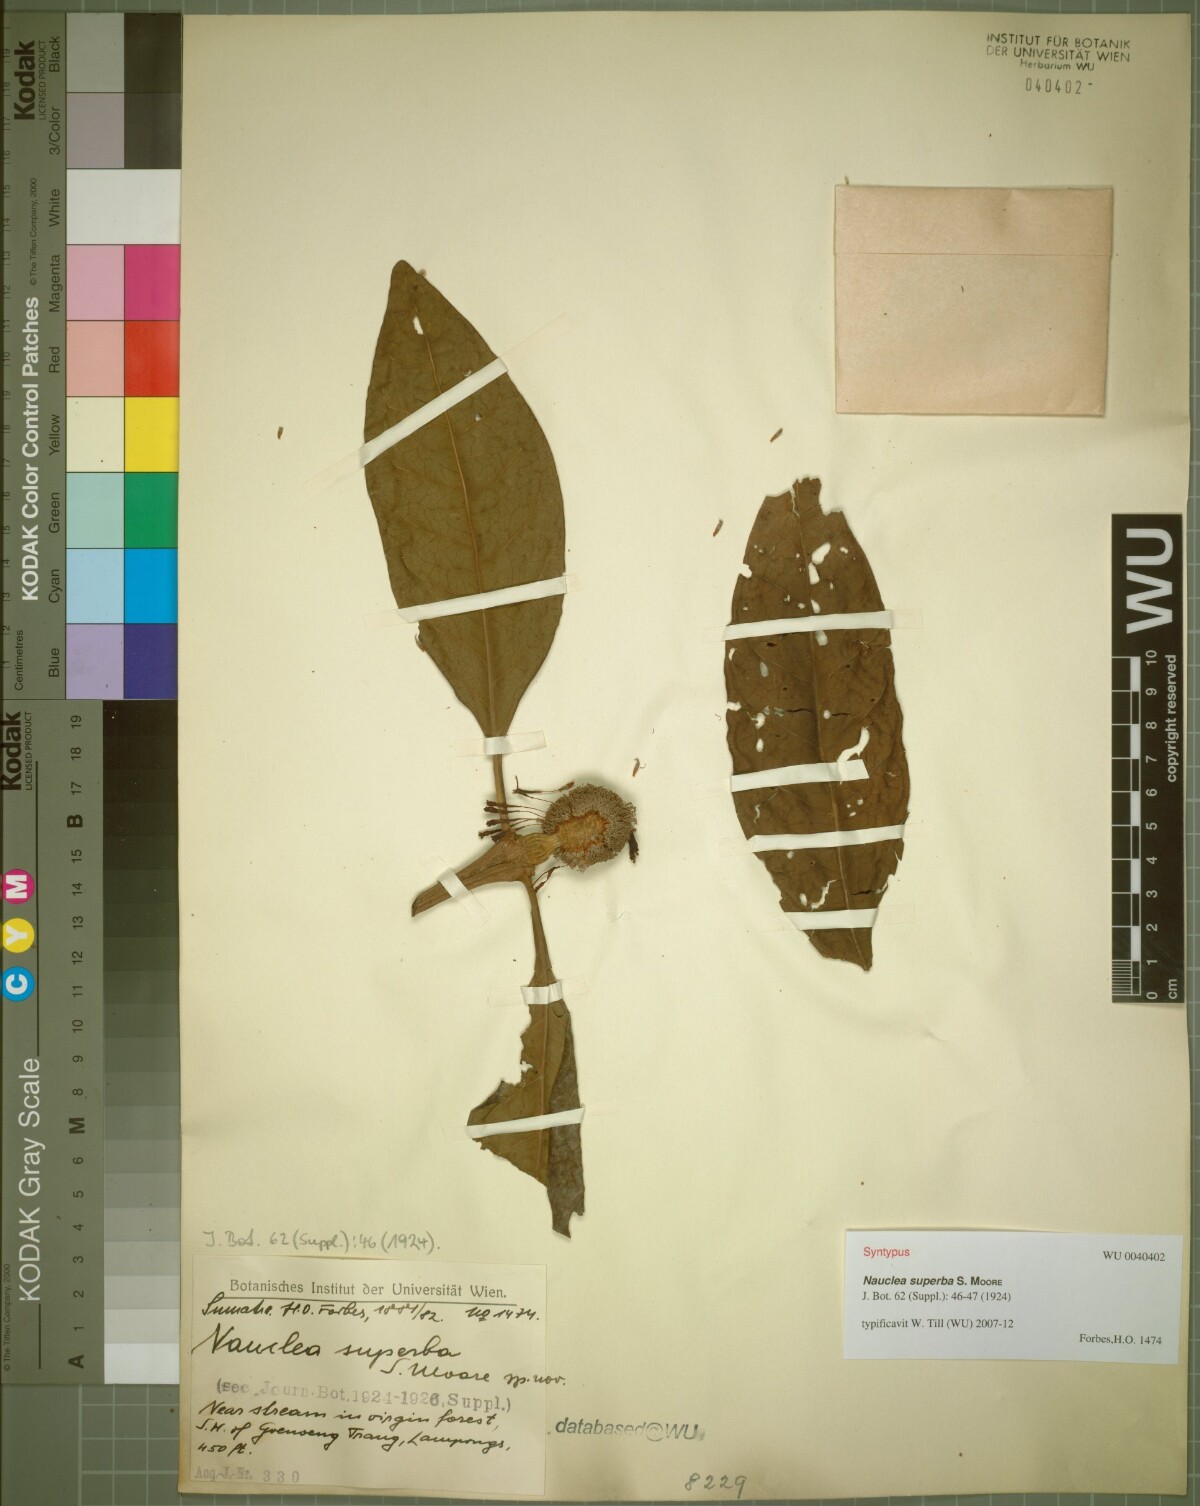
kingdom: Plantae
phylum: Tracheophyta
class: Magnoliopsida
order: Gentianales
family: Rubiaceae
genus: Neonauclea
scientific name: Neonauclea superba
